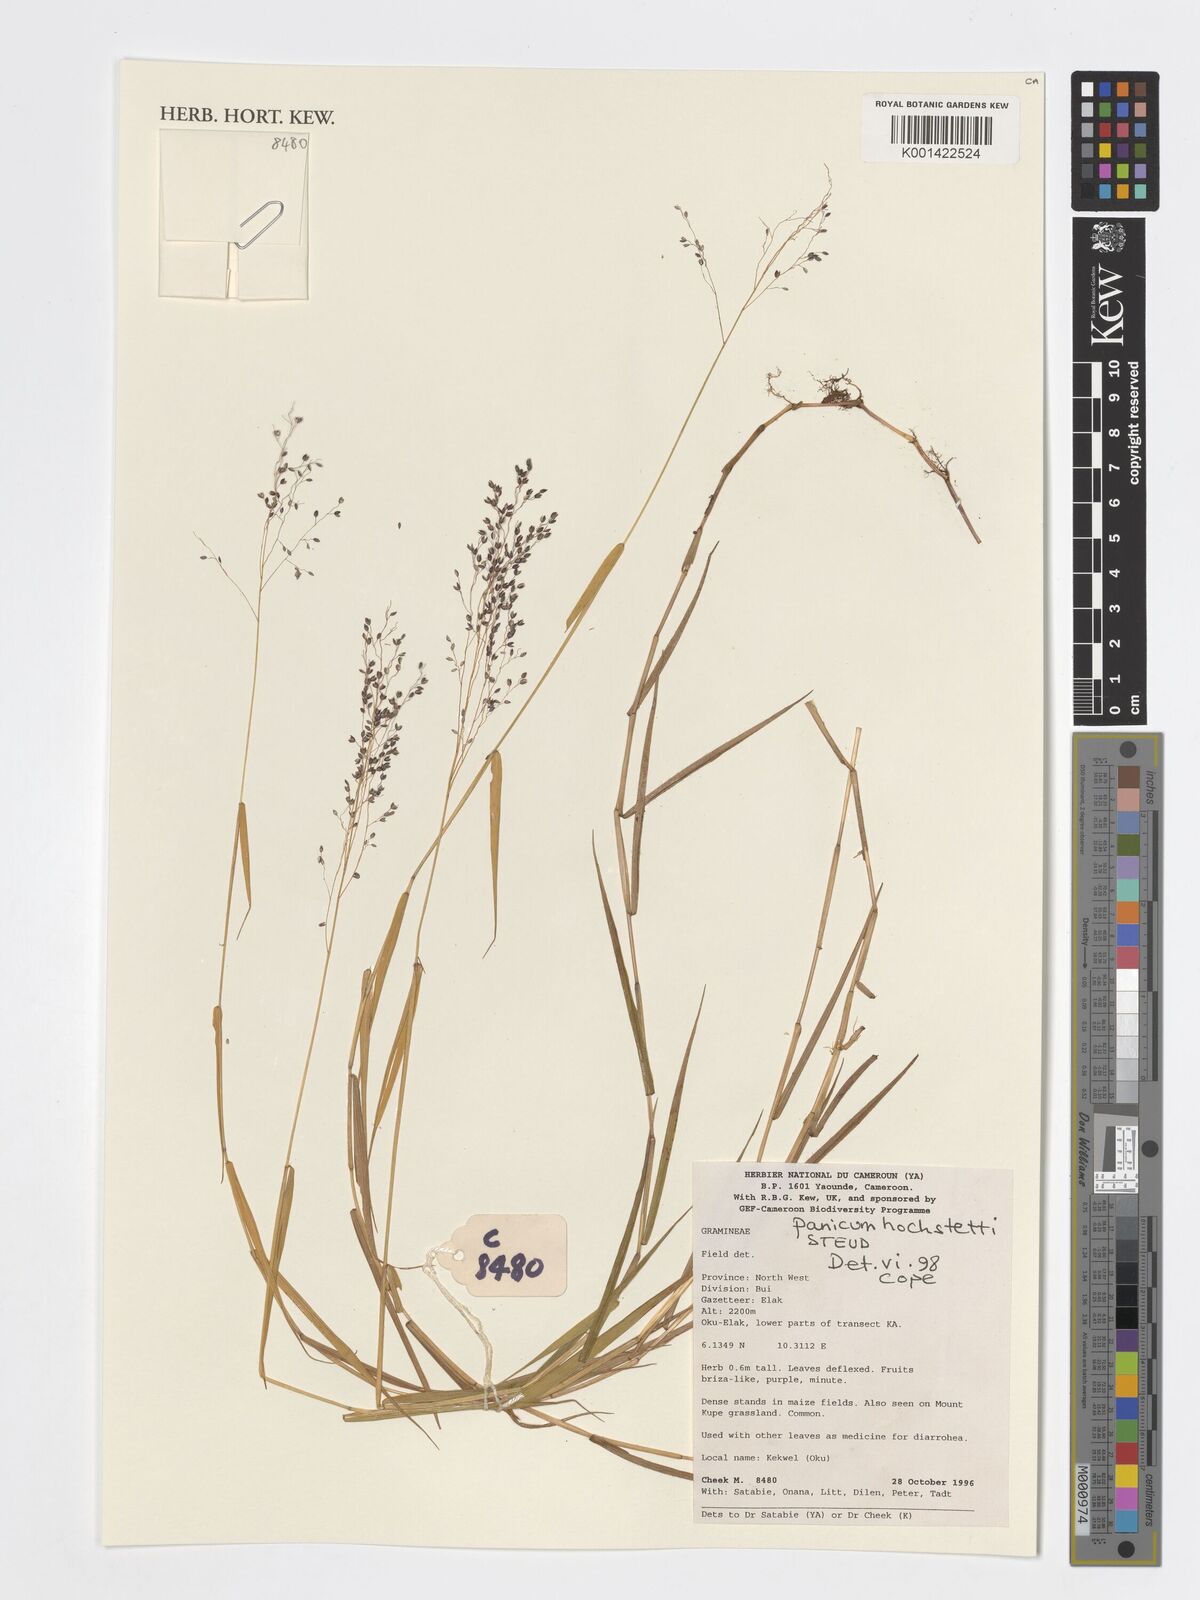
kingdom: Plantae
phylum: Tracheophyta
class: Liliopsida
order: Poales
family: Poaceae
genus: Panicum
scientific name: Panicum hochstetteri
